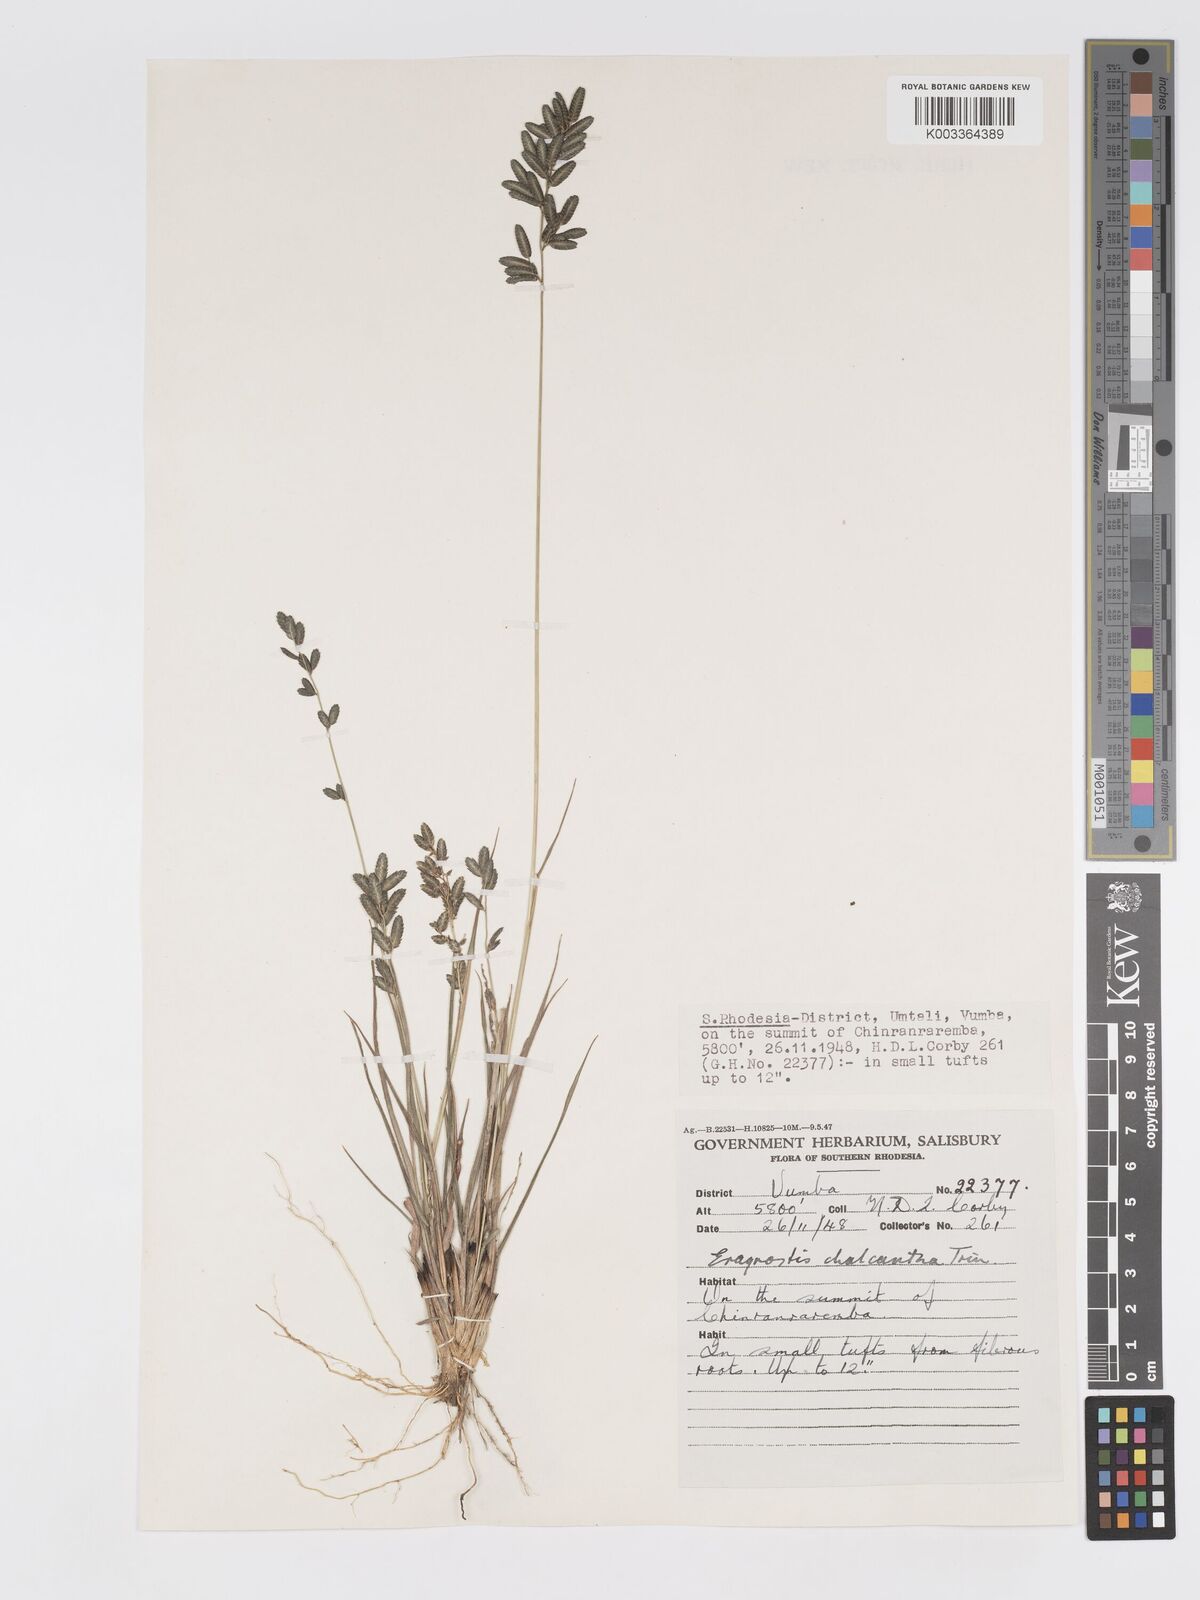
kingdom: Plantae
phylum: Tracheophyta
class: Liliopsida
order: Poales
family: Poaceae
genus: Eragrostis
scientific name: Eragrostis racemosa
